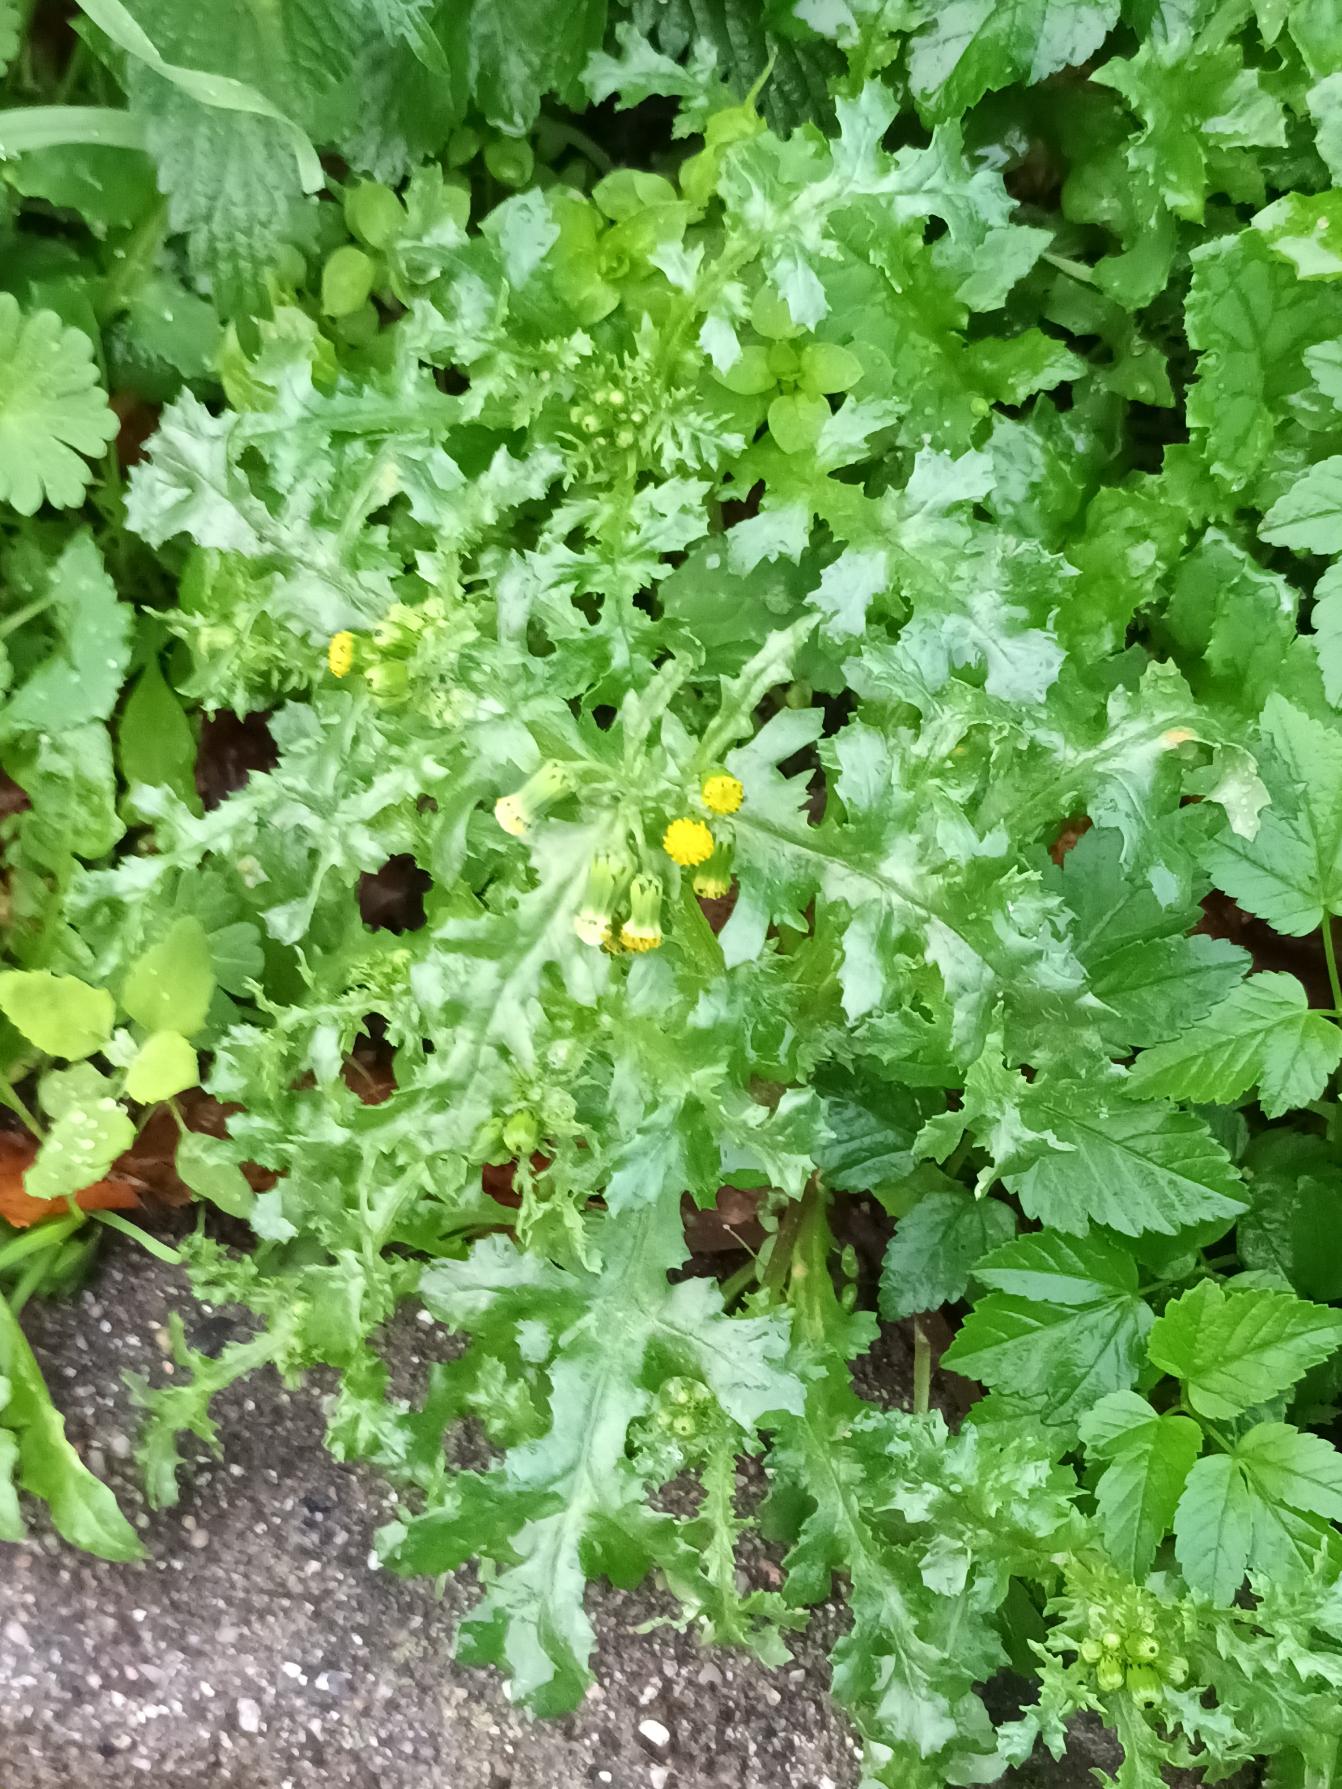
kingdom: Plantae
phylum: Tracheophyta
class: Magnoliopsida
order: Asterales
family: Asteraceae
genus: Senecio
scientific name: Senecio vulgaris
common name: Almindelig brandbæger
